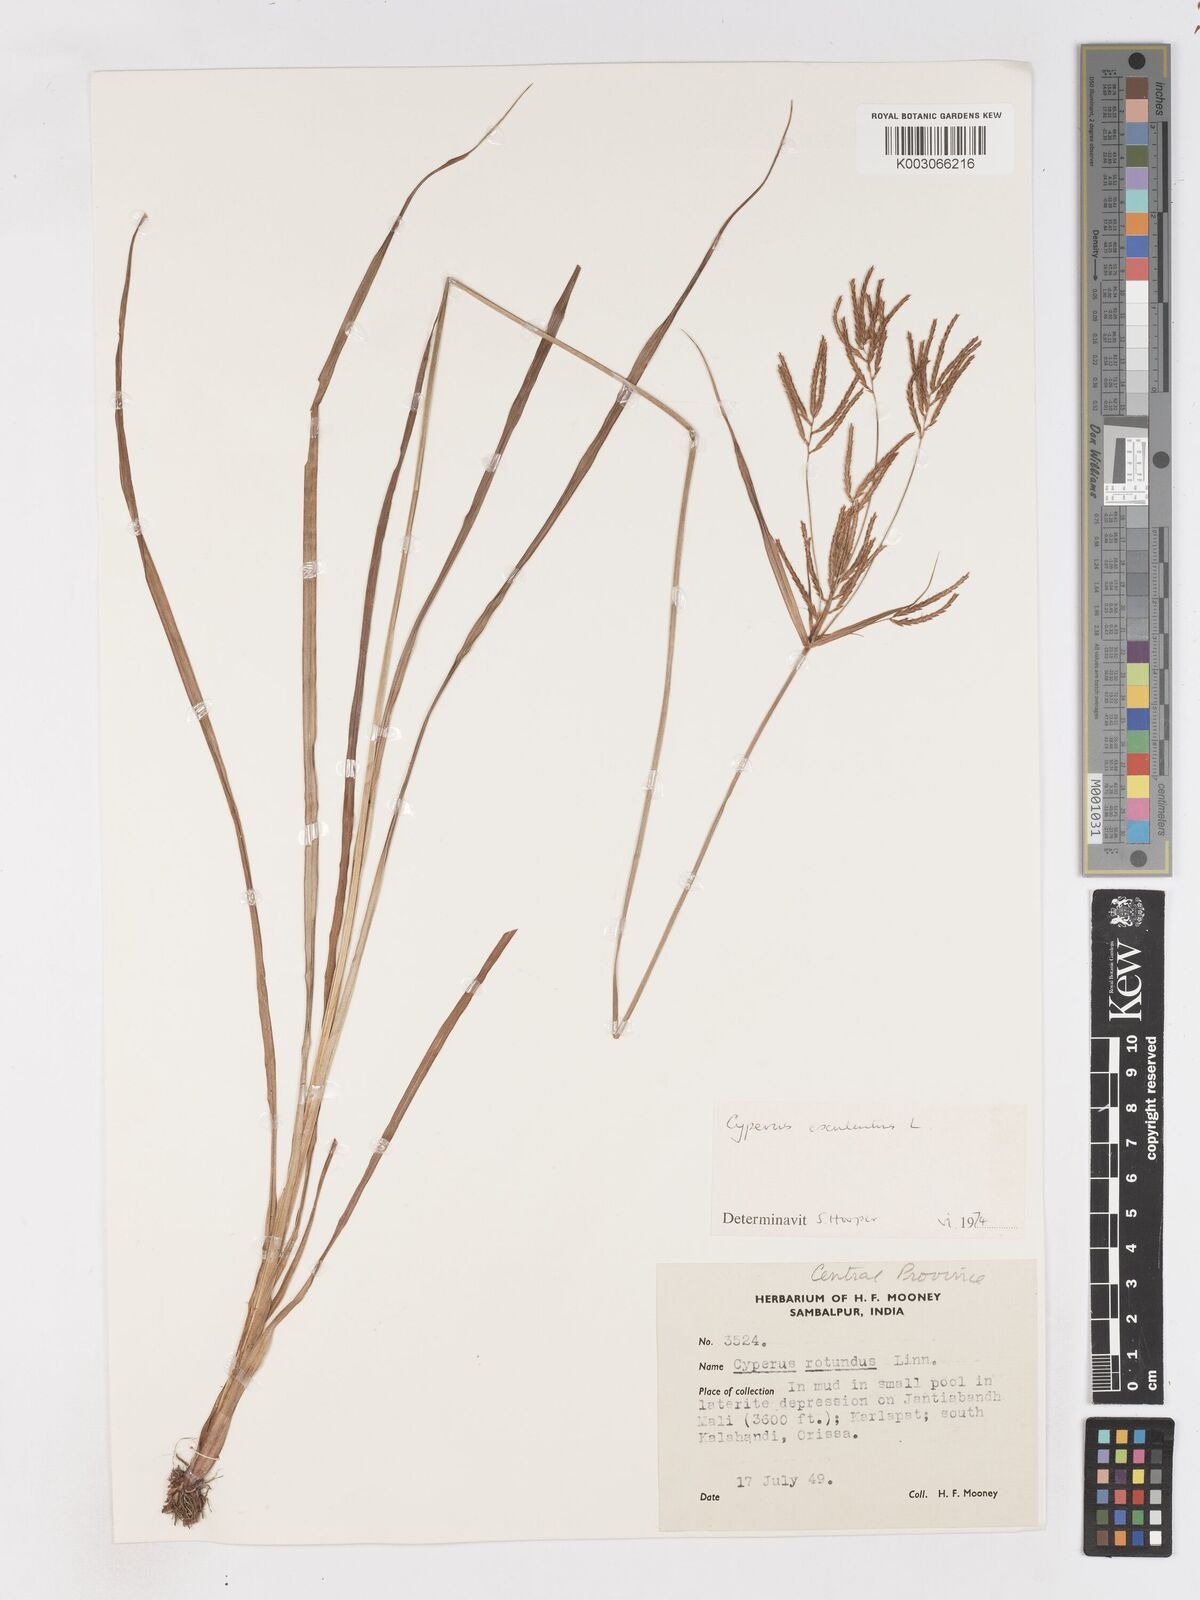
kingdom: Plantae
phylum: Tracheophyta
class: Liliopsida
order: Poales
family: Cyperaceae
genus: Cyperus
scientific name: Cyperus esculentus
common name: Yellow nutsedge
